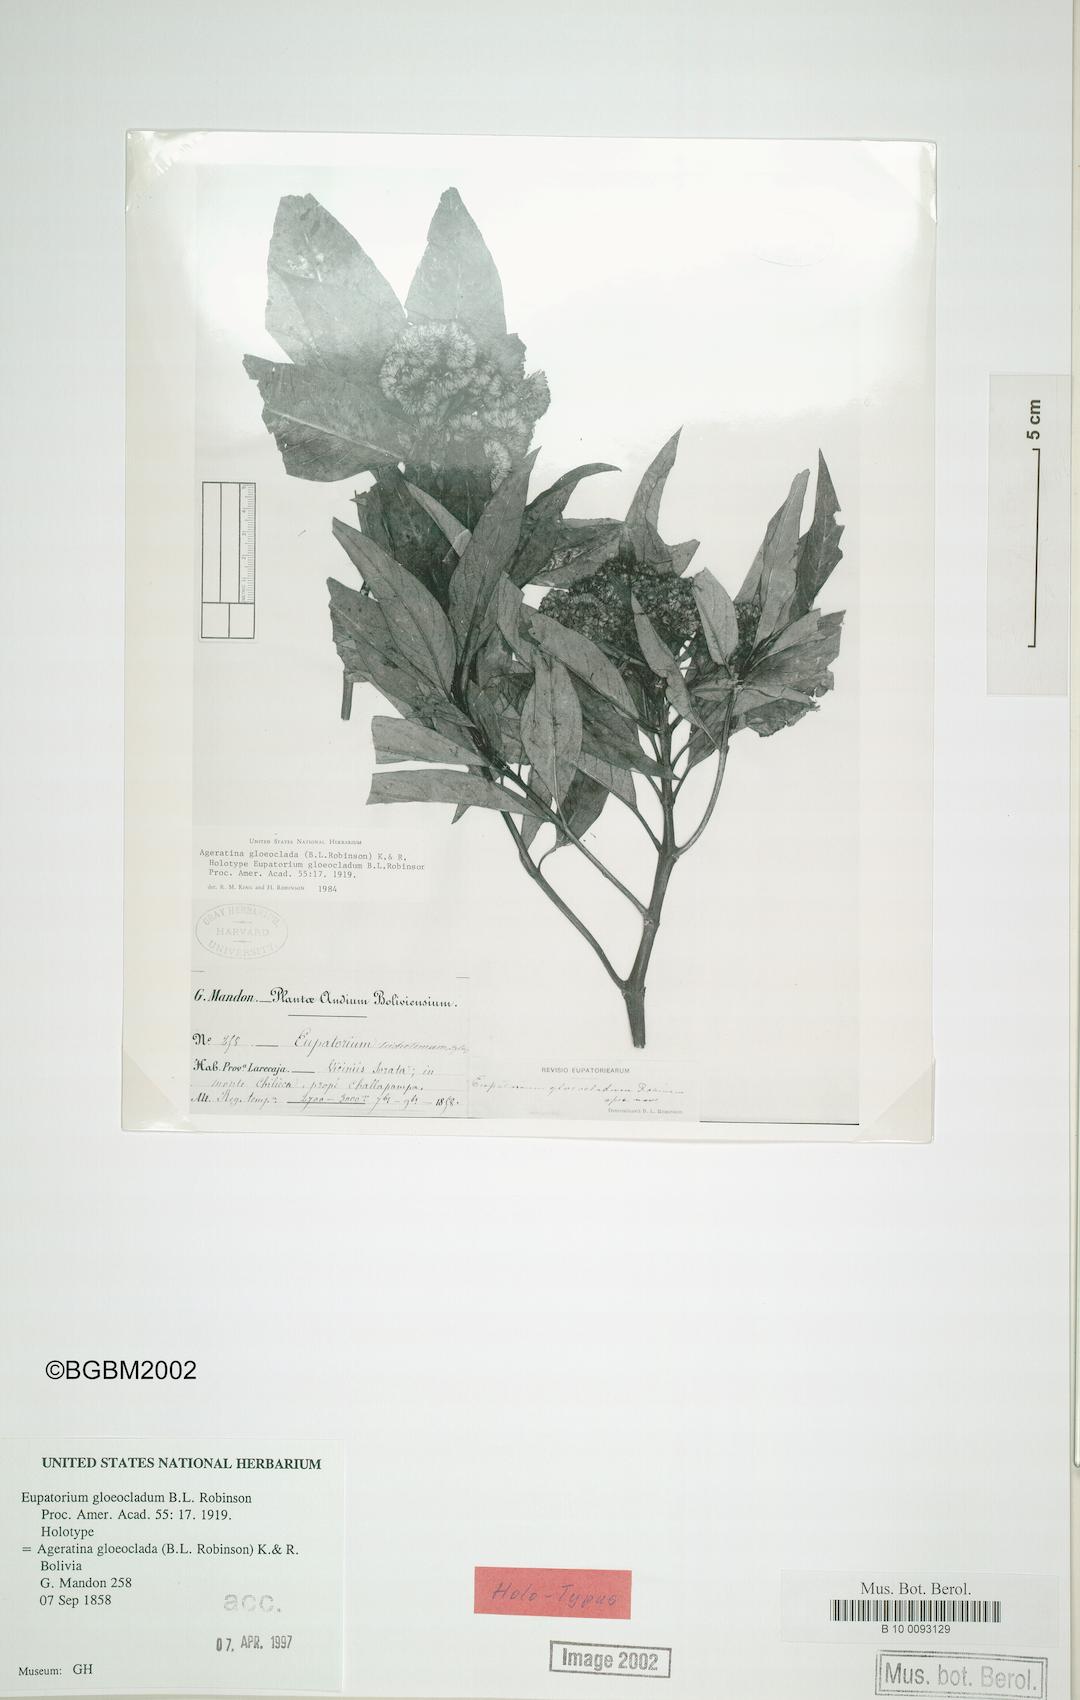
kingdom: Plantae
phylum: Tracheophyta
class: Magnoliopsida
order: Asterales
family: Asteraceae
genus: Ageratina
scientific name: Ageratina gloeoclada
